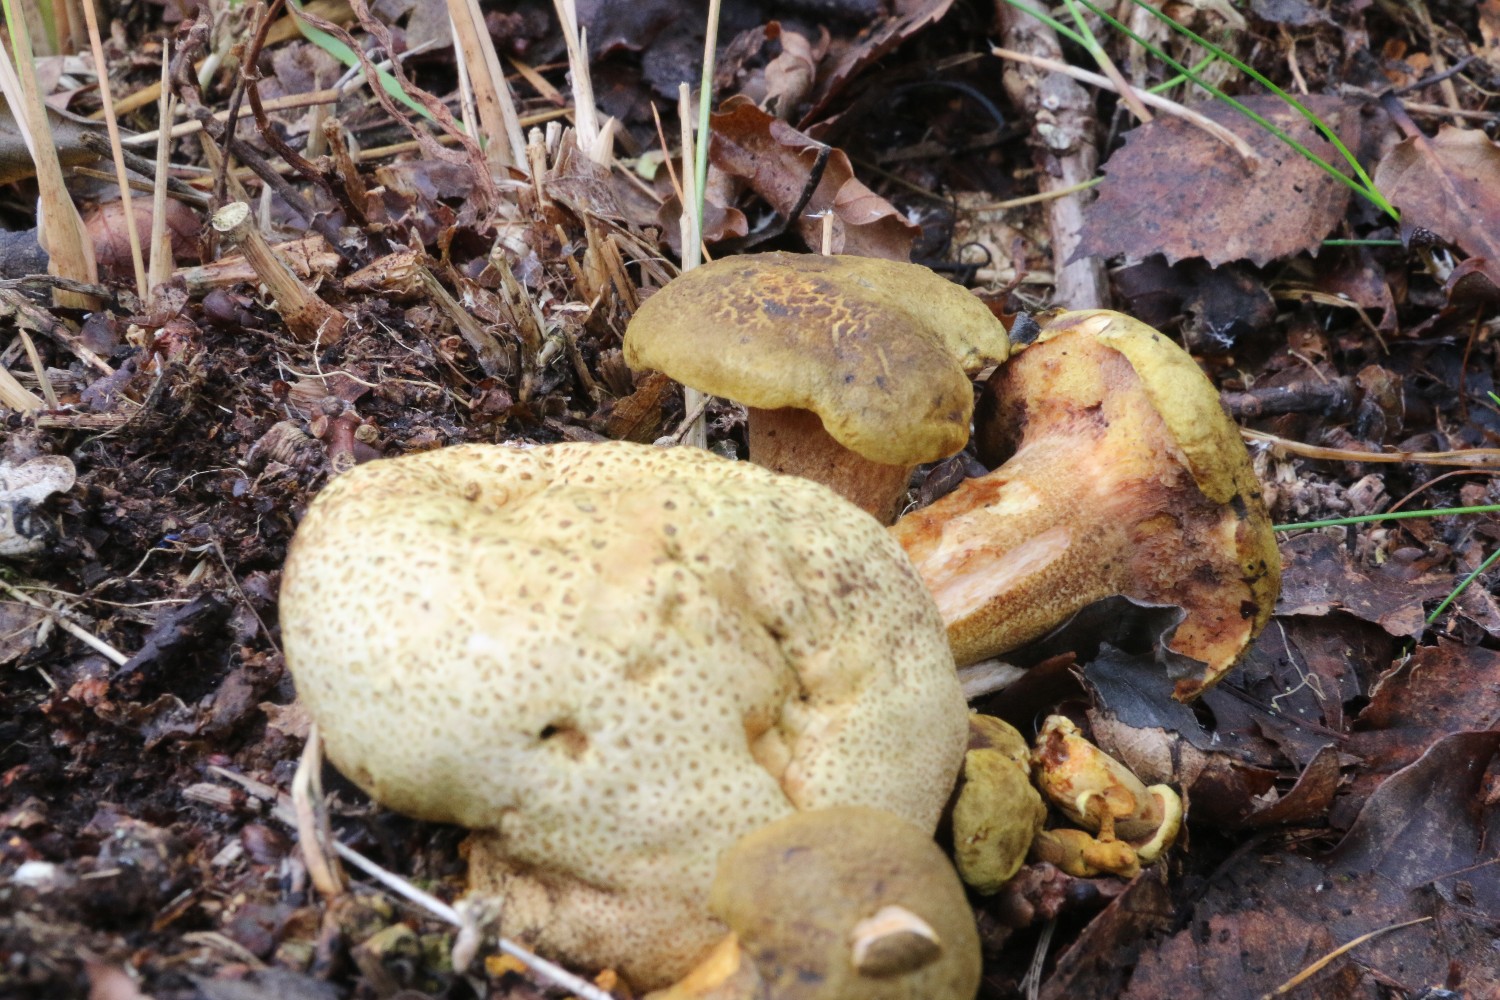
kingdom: Fungi
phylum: Basidiomycota
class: Agaricomycetes
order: Boletales
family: Boletaceae
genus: Pseudoboletus
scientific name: Pseudoboletus parasiticus
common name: snyltende rørhat
